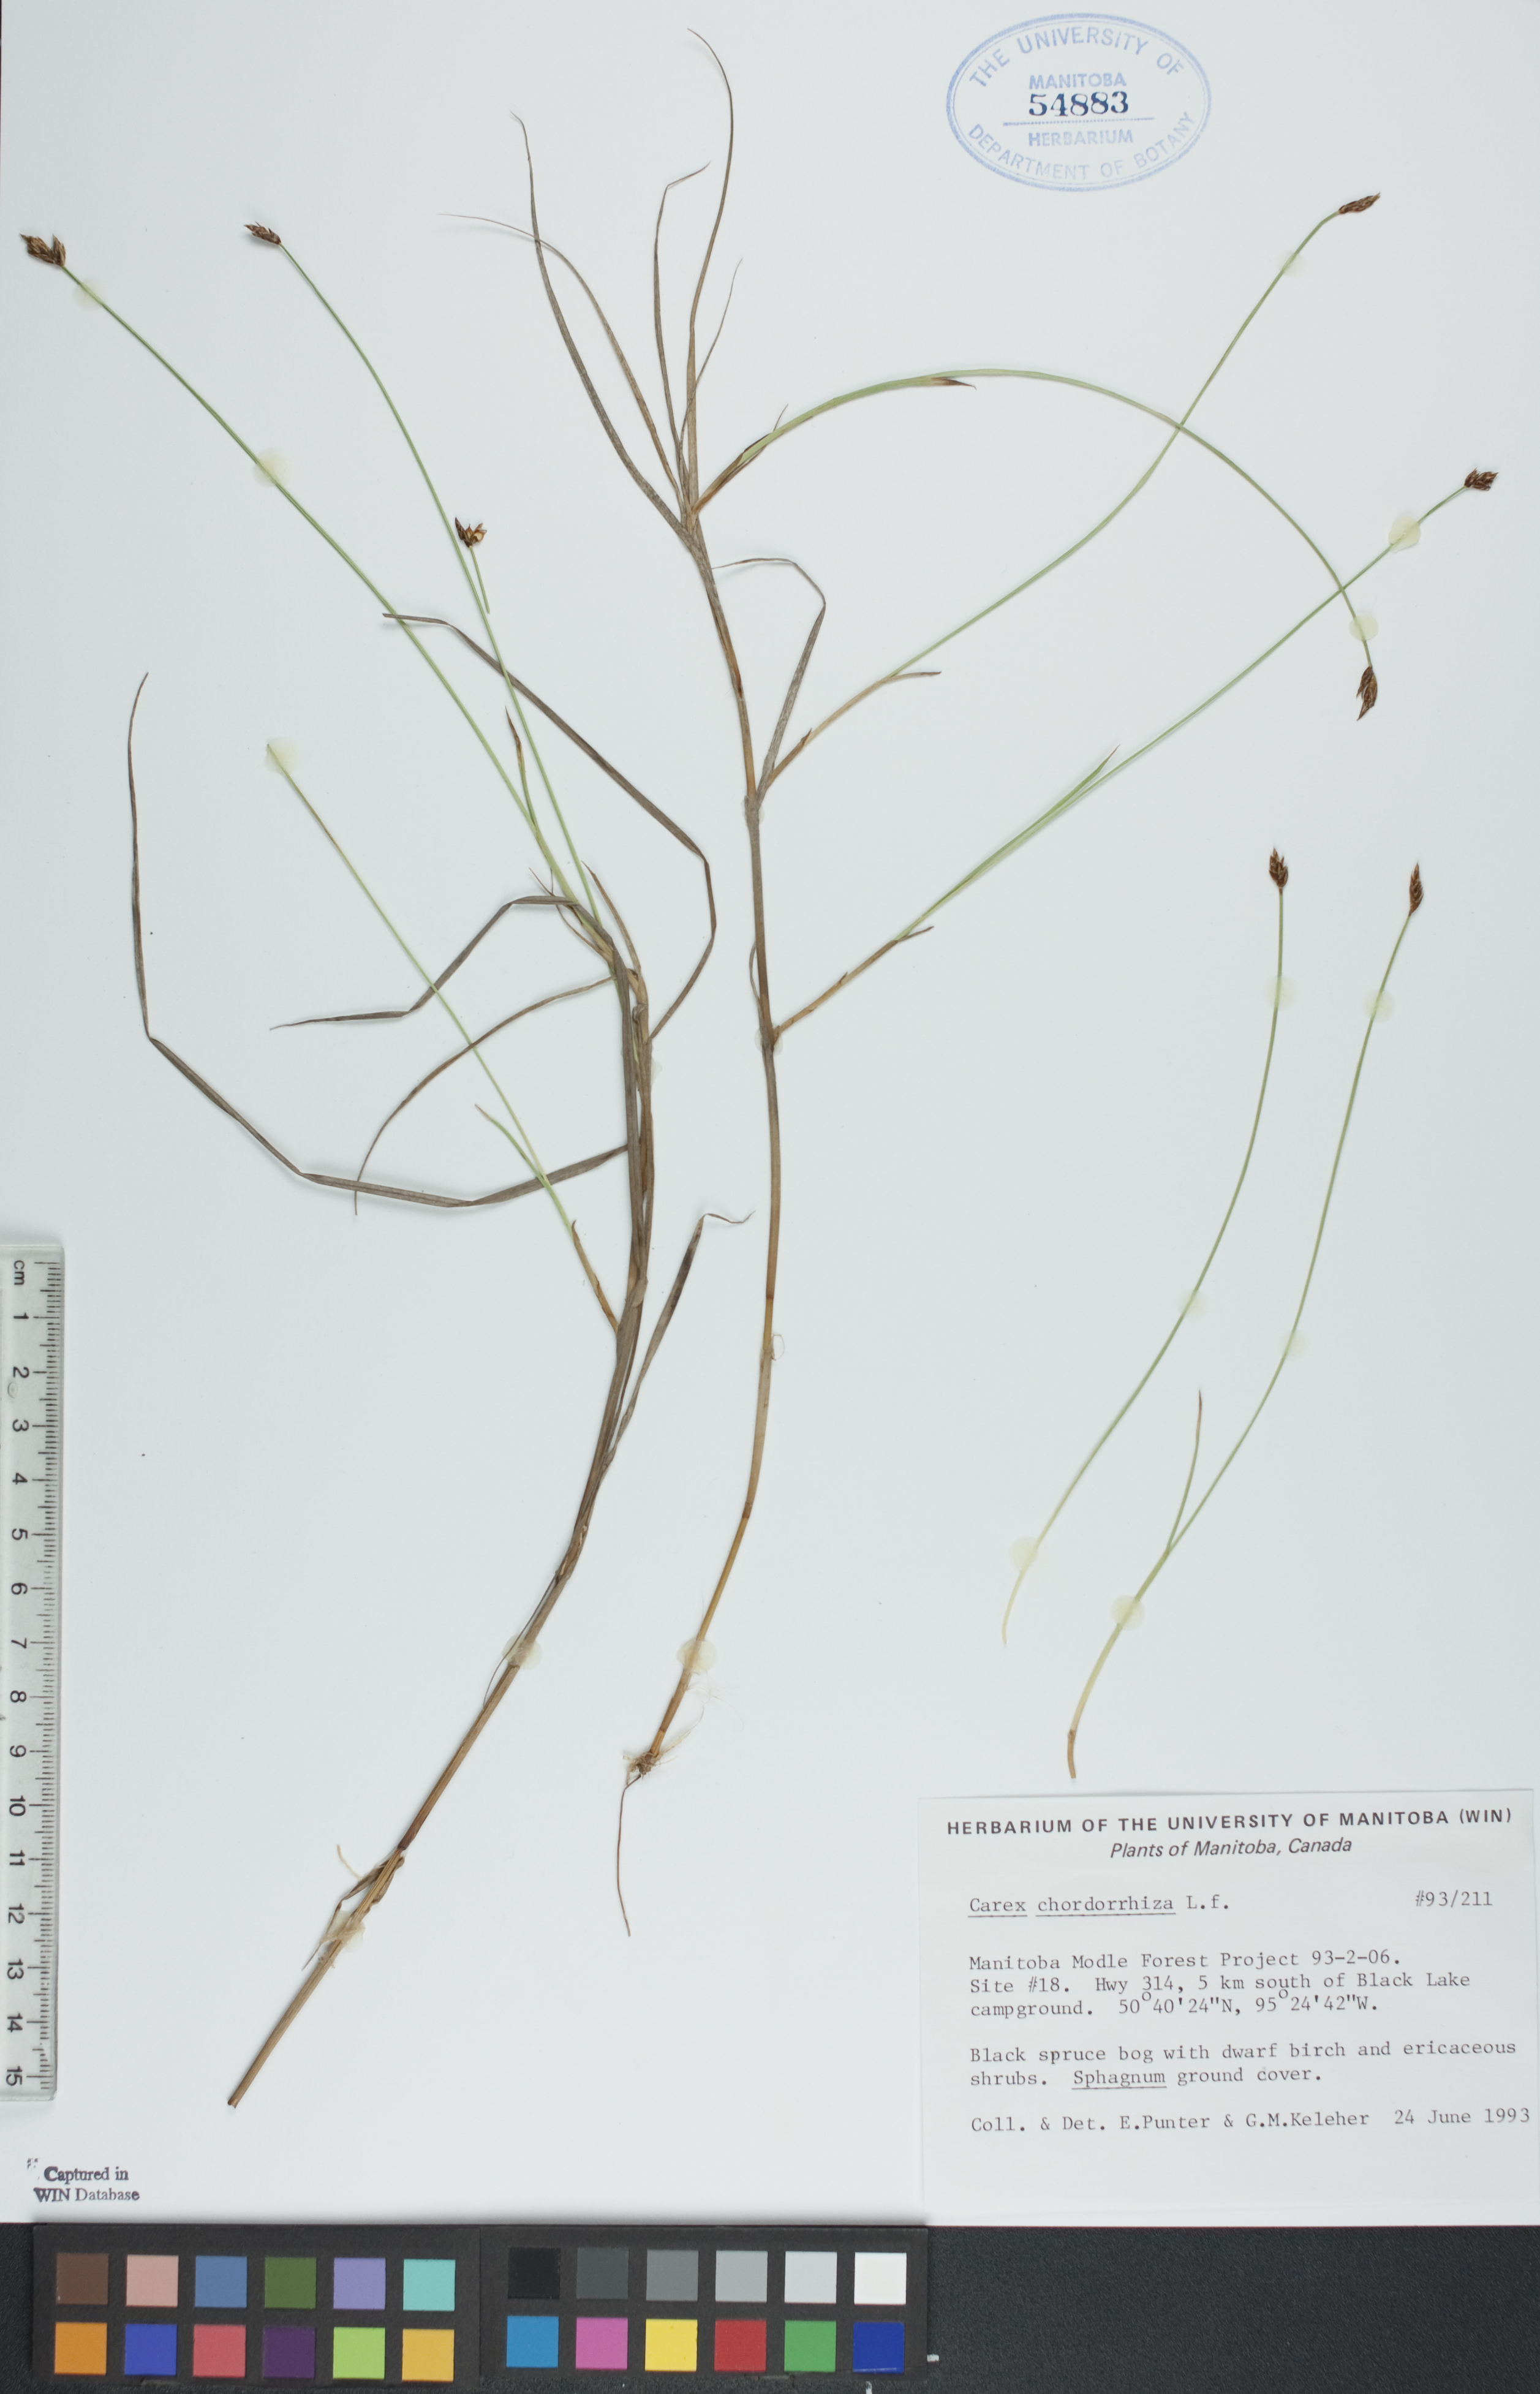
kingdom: Plantae
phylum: Tracheophyta
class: Liliopsida
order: Poales
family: Cyperaceae
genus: Carex
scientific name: Carex chordorrhiza
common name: String sedge
